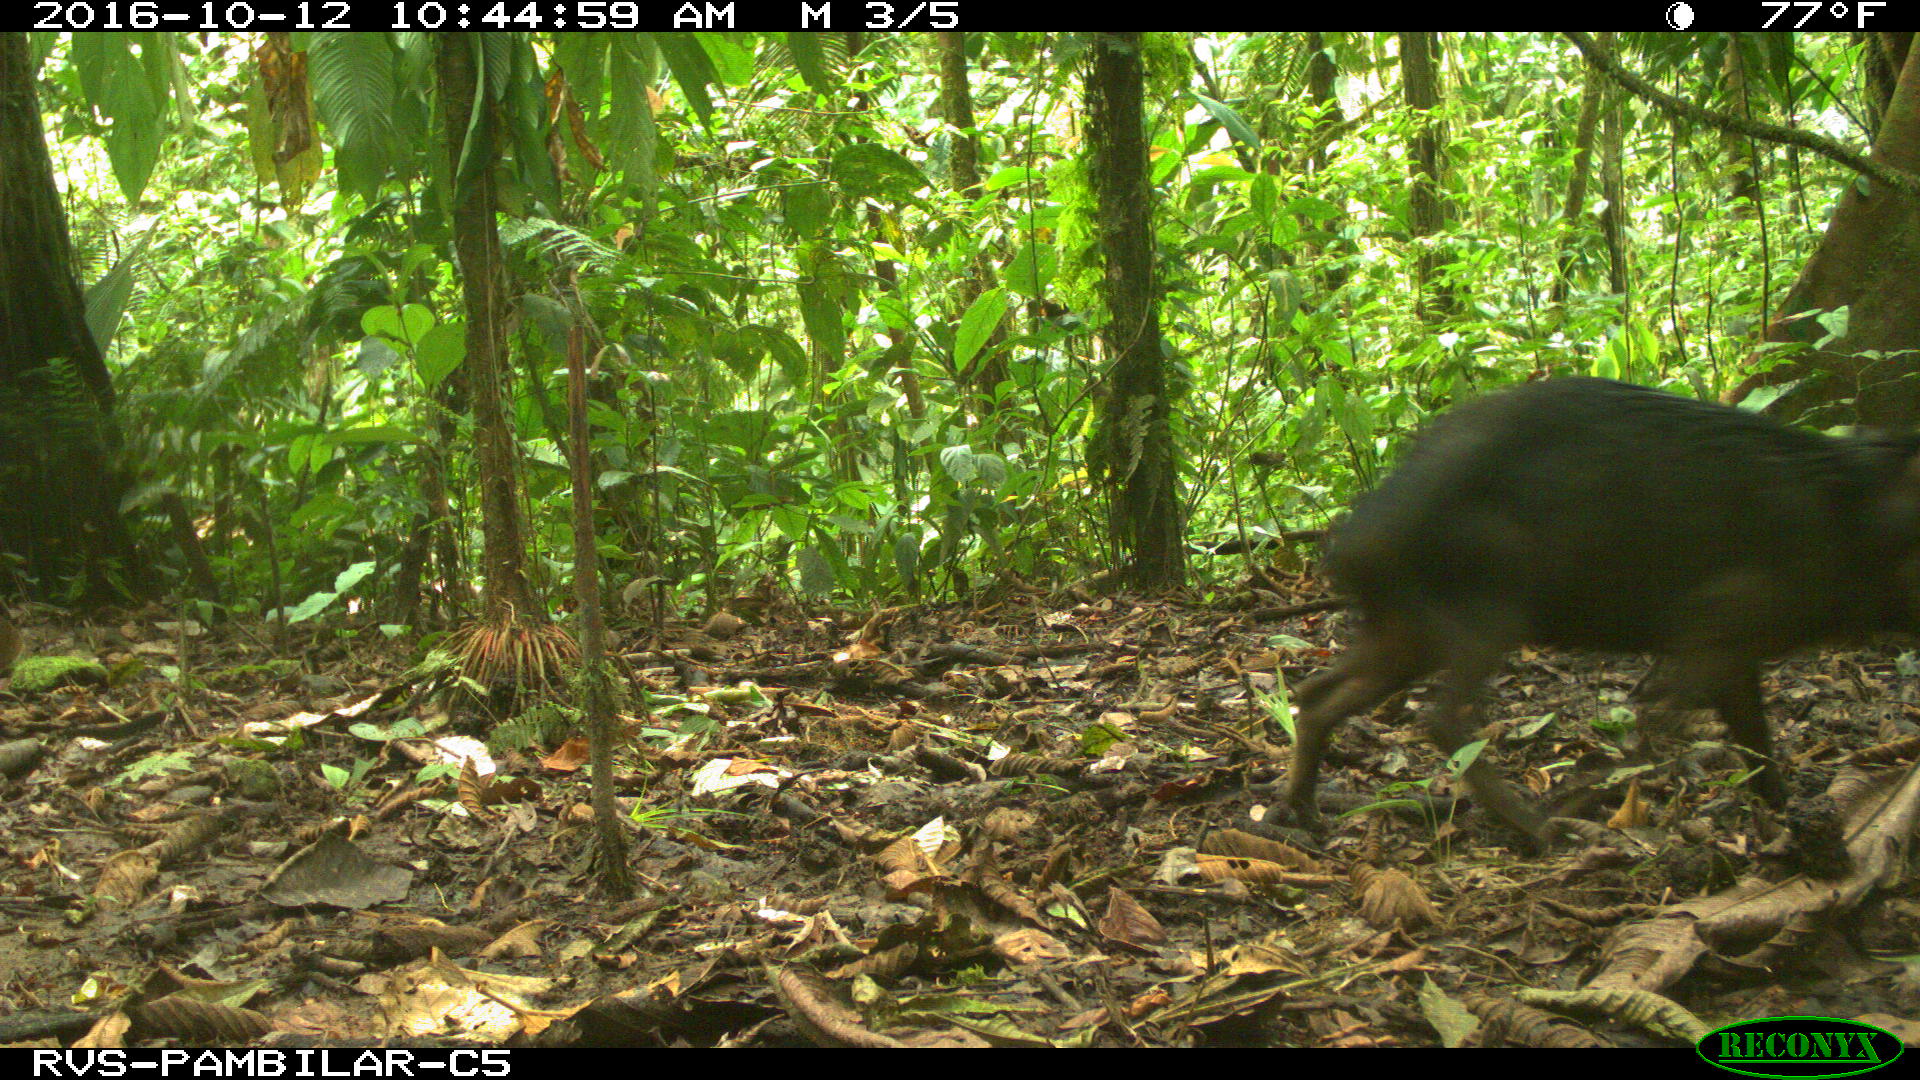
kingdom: Animalia
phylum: Chordata
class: Mammalia
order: Artiodactyla
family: Tayassuidae
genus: Tayassu
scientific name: Tayassu pecari
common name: White-lipped peccary
